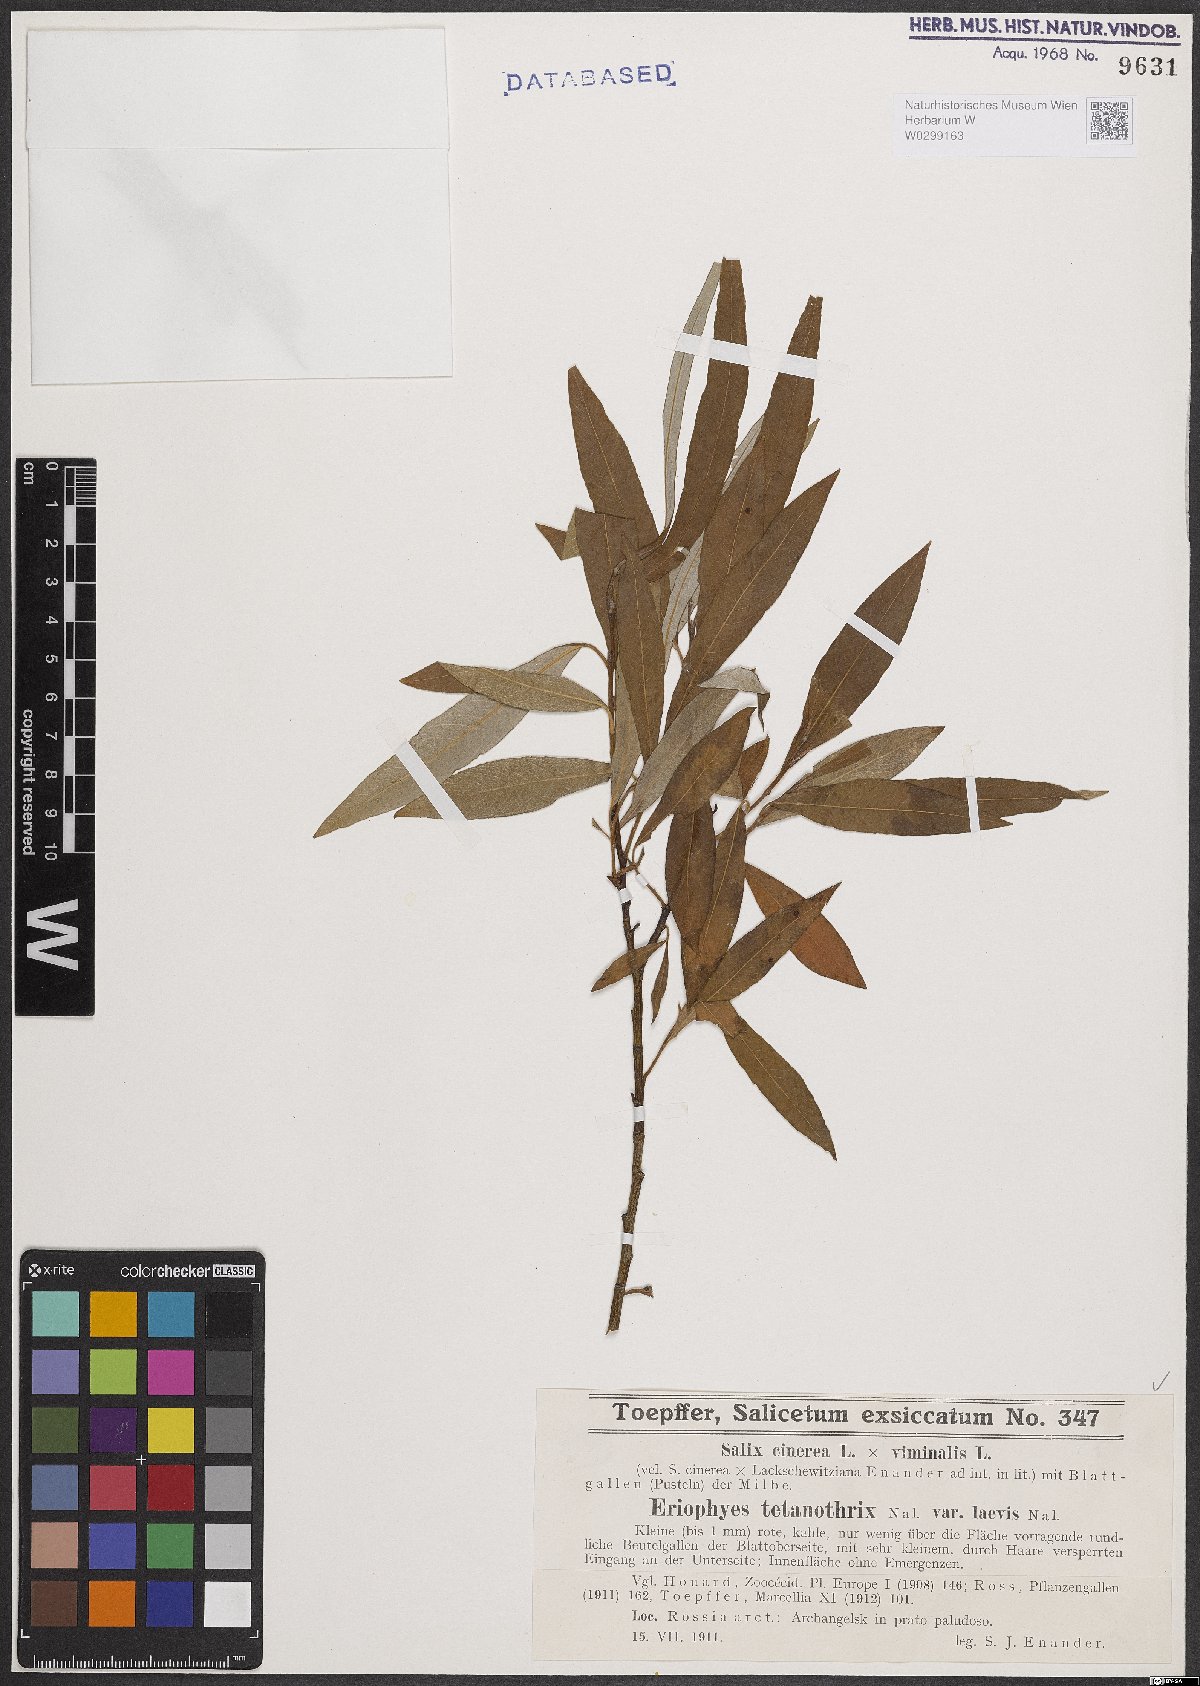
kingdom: Plantae
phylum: Tracheophyta
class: Magnoliopsida
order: Malpighiales
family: Salicaceae
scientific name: Salicaceae
